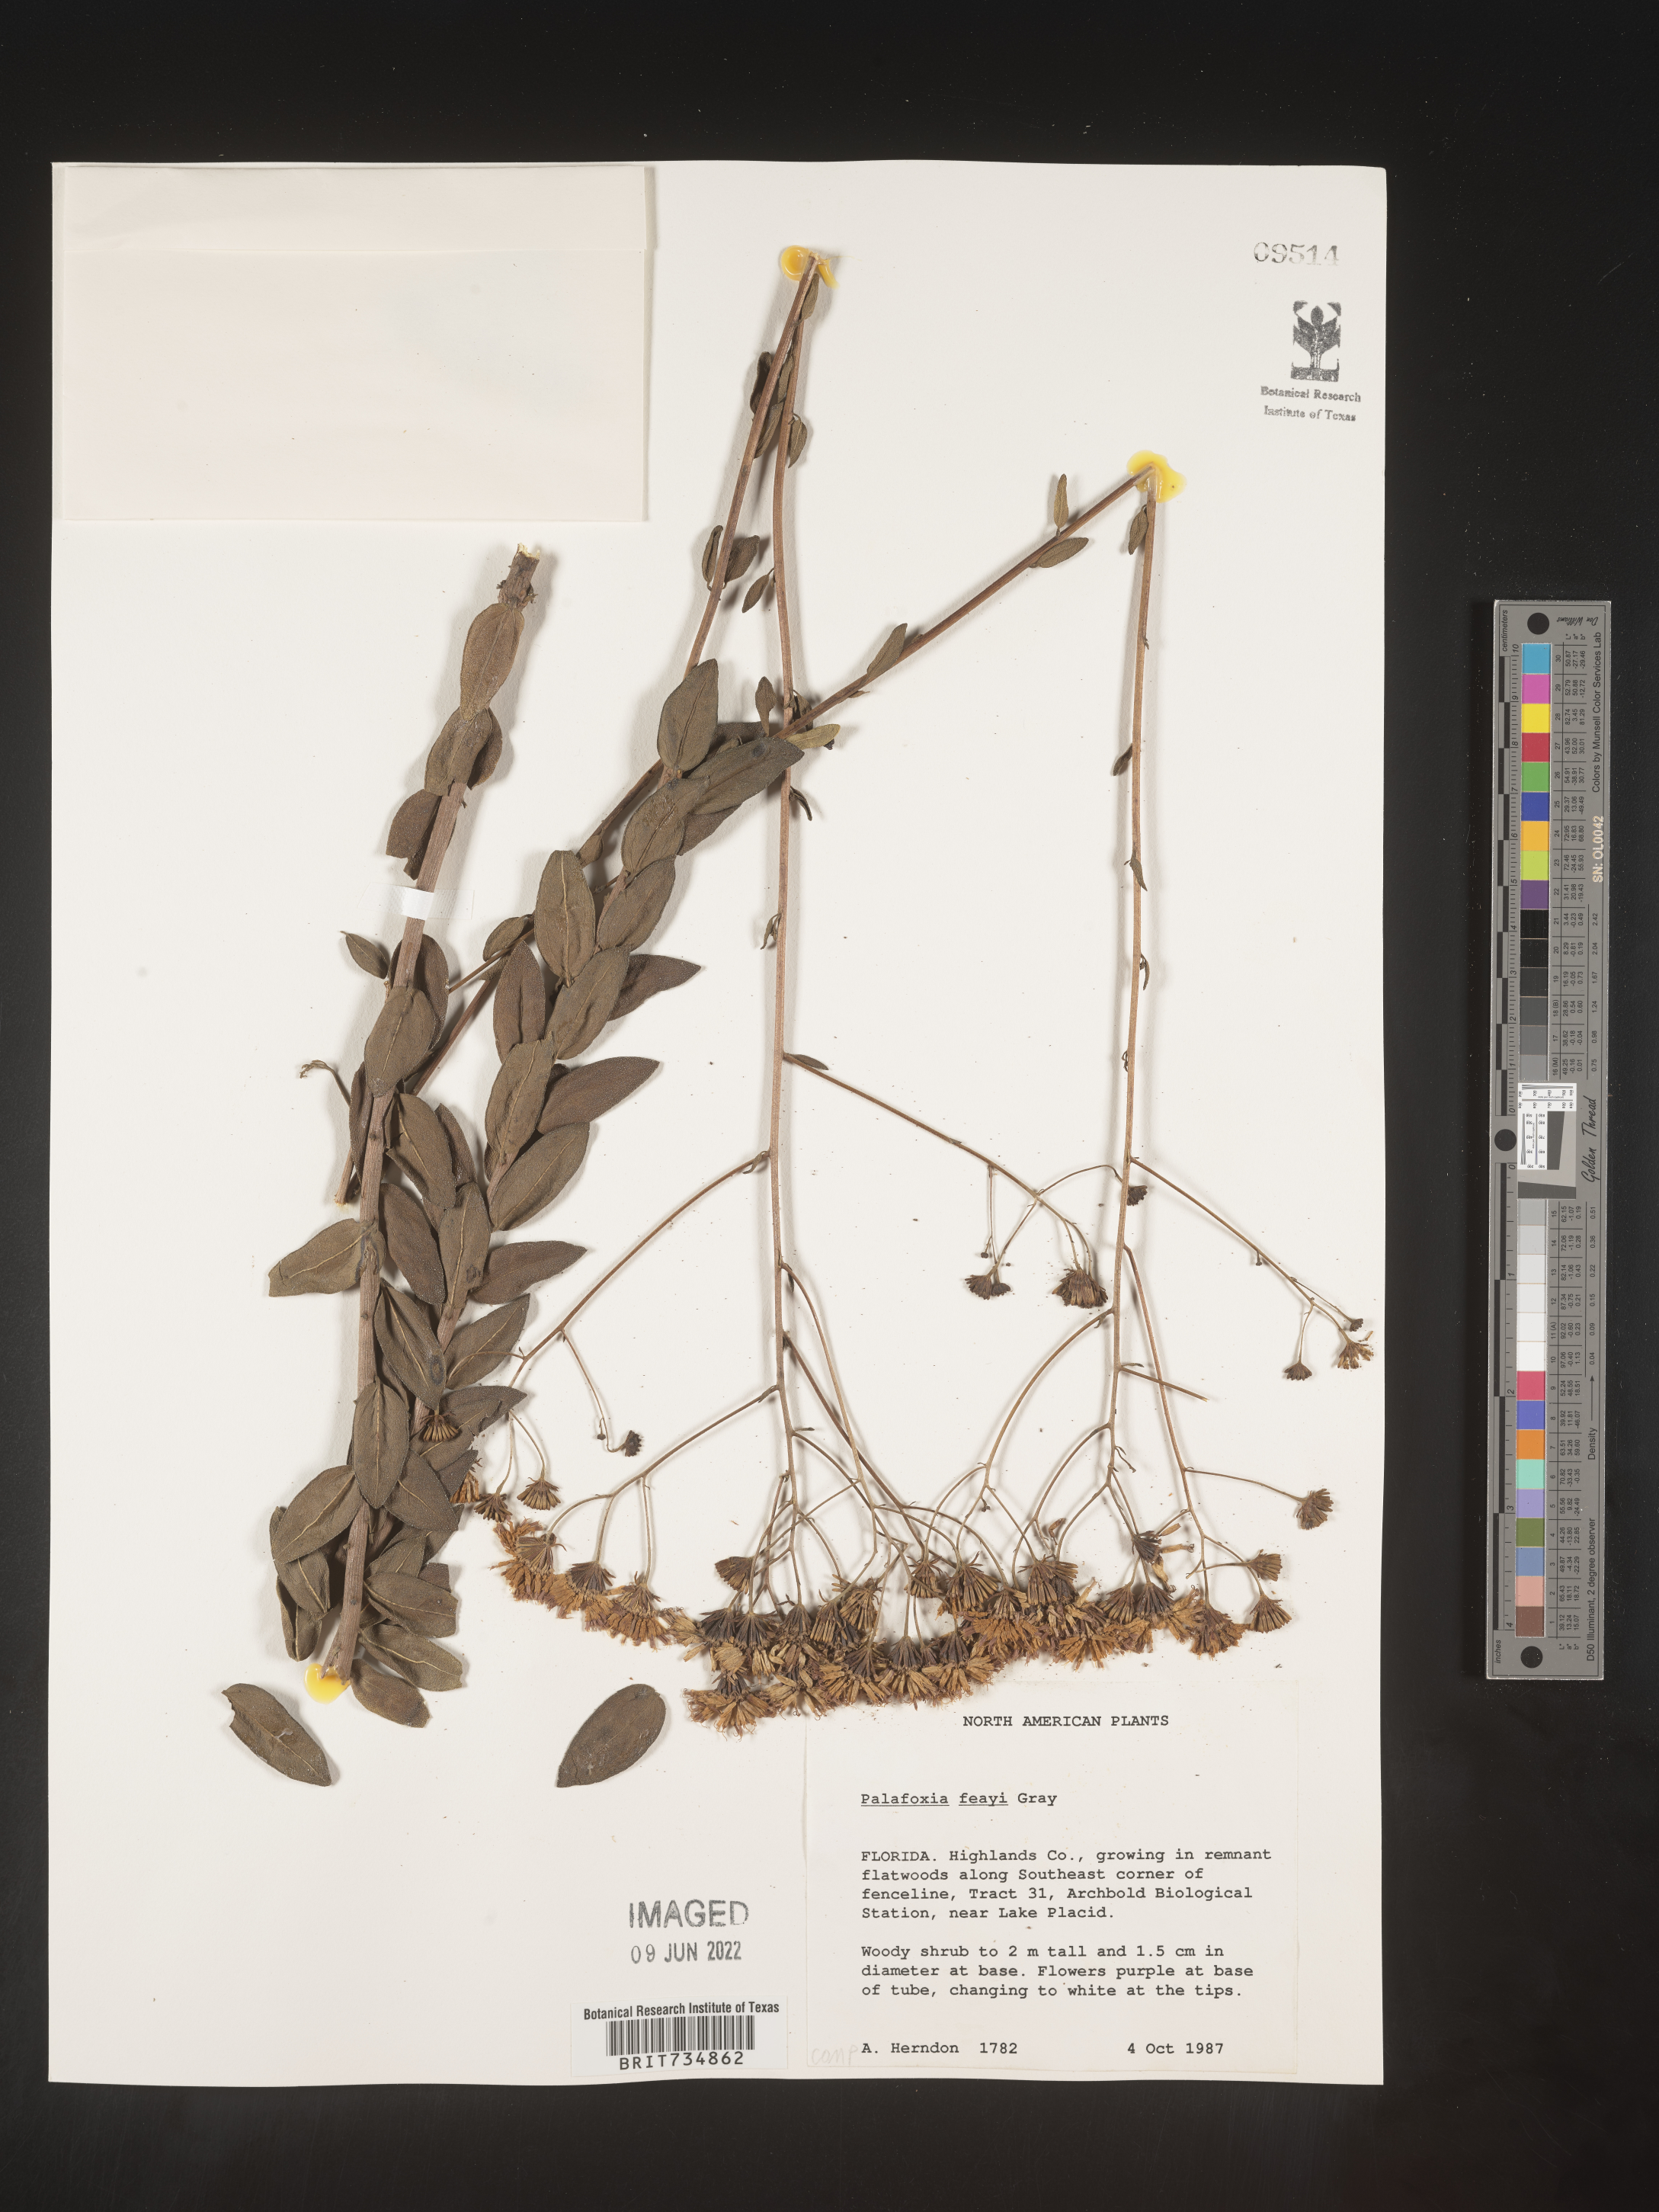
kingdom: Plantae
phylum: Tracheophyta
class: Magnoliopsida
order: Asterales
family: Asteraceae
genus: Palafoxia
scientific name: Palafoxia feayi
